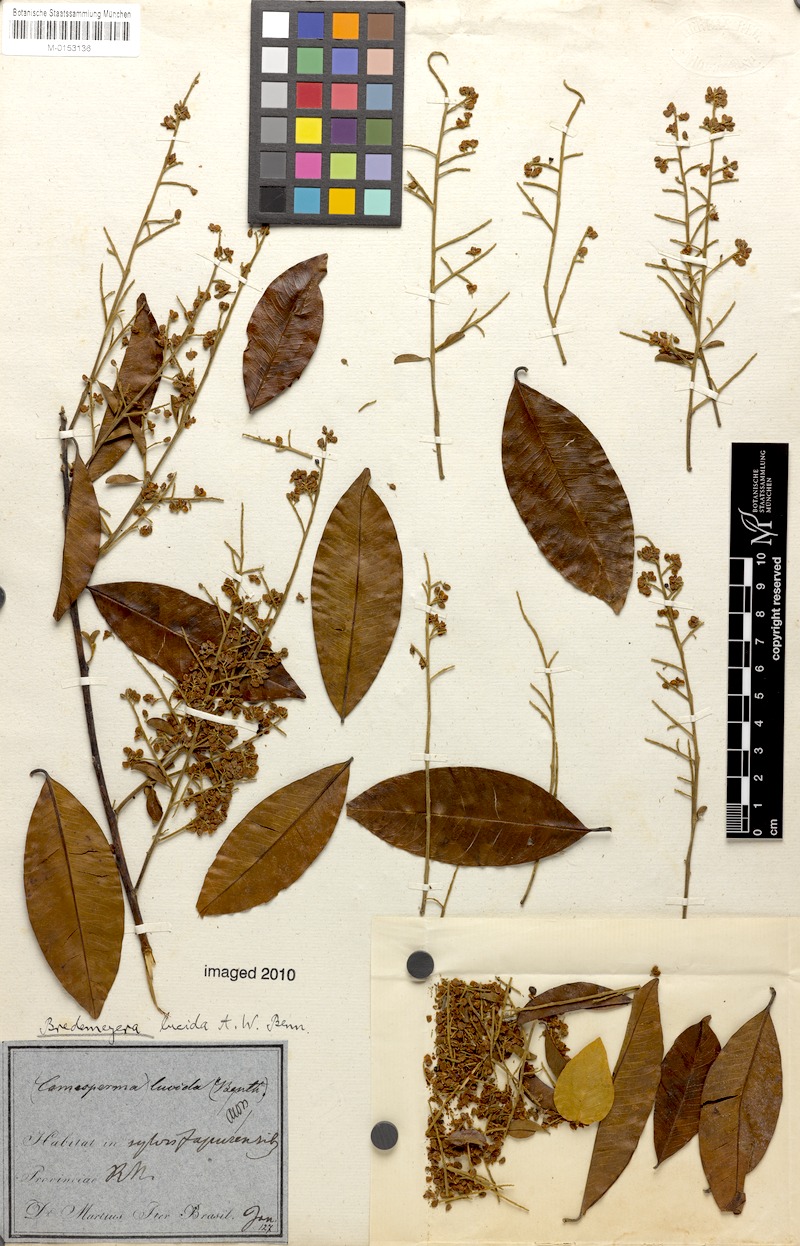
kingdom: Plantae
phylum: Tracheophyta
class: Magnoliopsida
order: Fabales
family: Polygalaceae
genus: Bredemeyera
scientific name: Bredemeyera lucida
